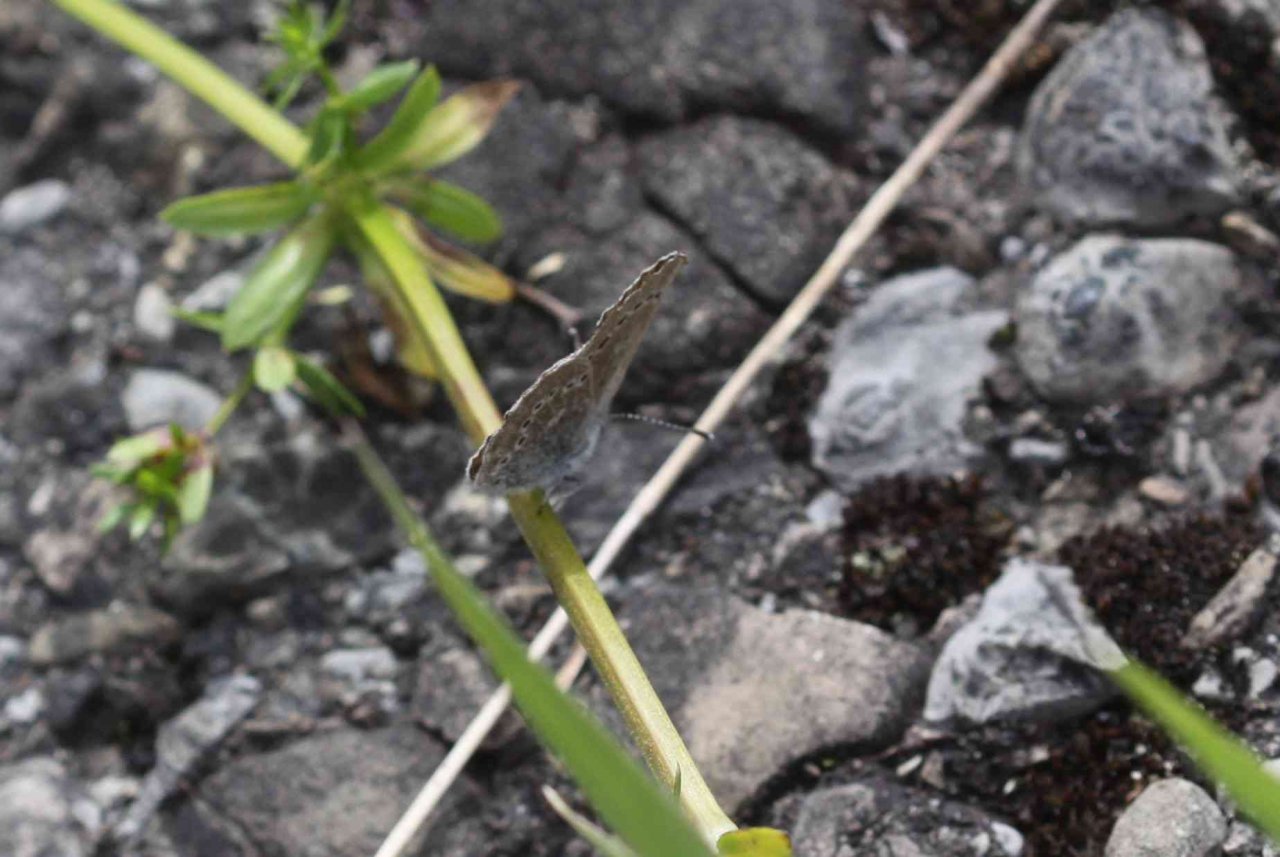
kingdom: Animalia
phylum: Arthropoda
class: Insecta
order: Lepidoptera
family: Lycaenidae
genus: Glaucopsyche
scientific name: Glaucopsyche lygdamus
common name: Silvery Blue
